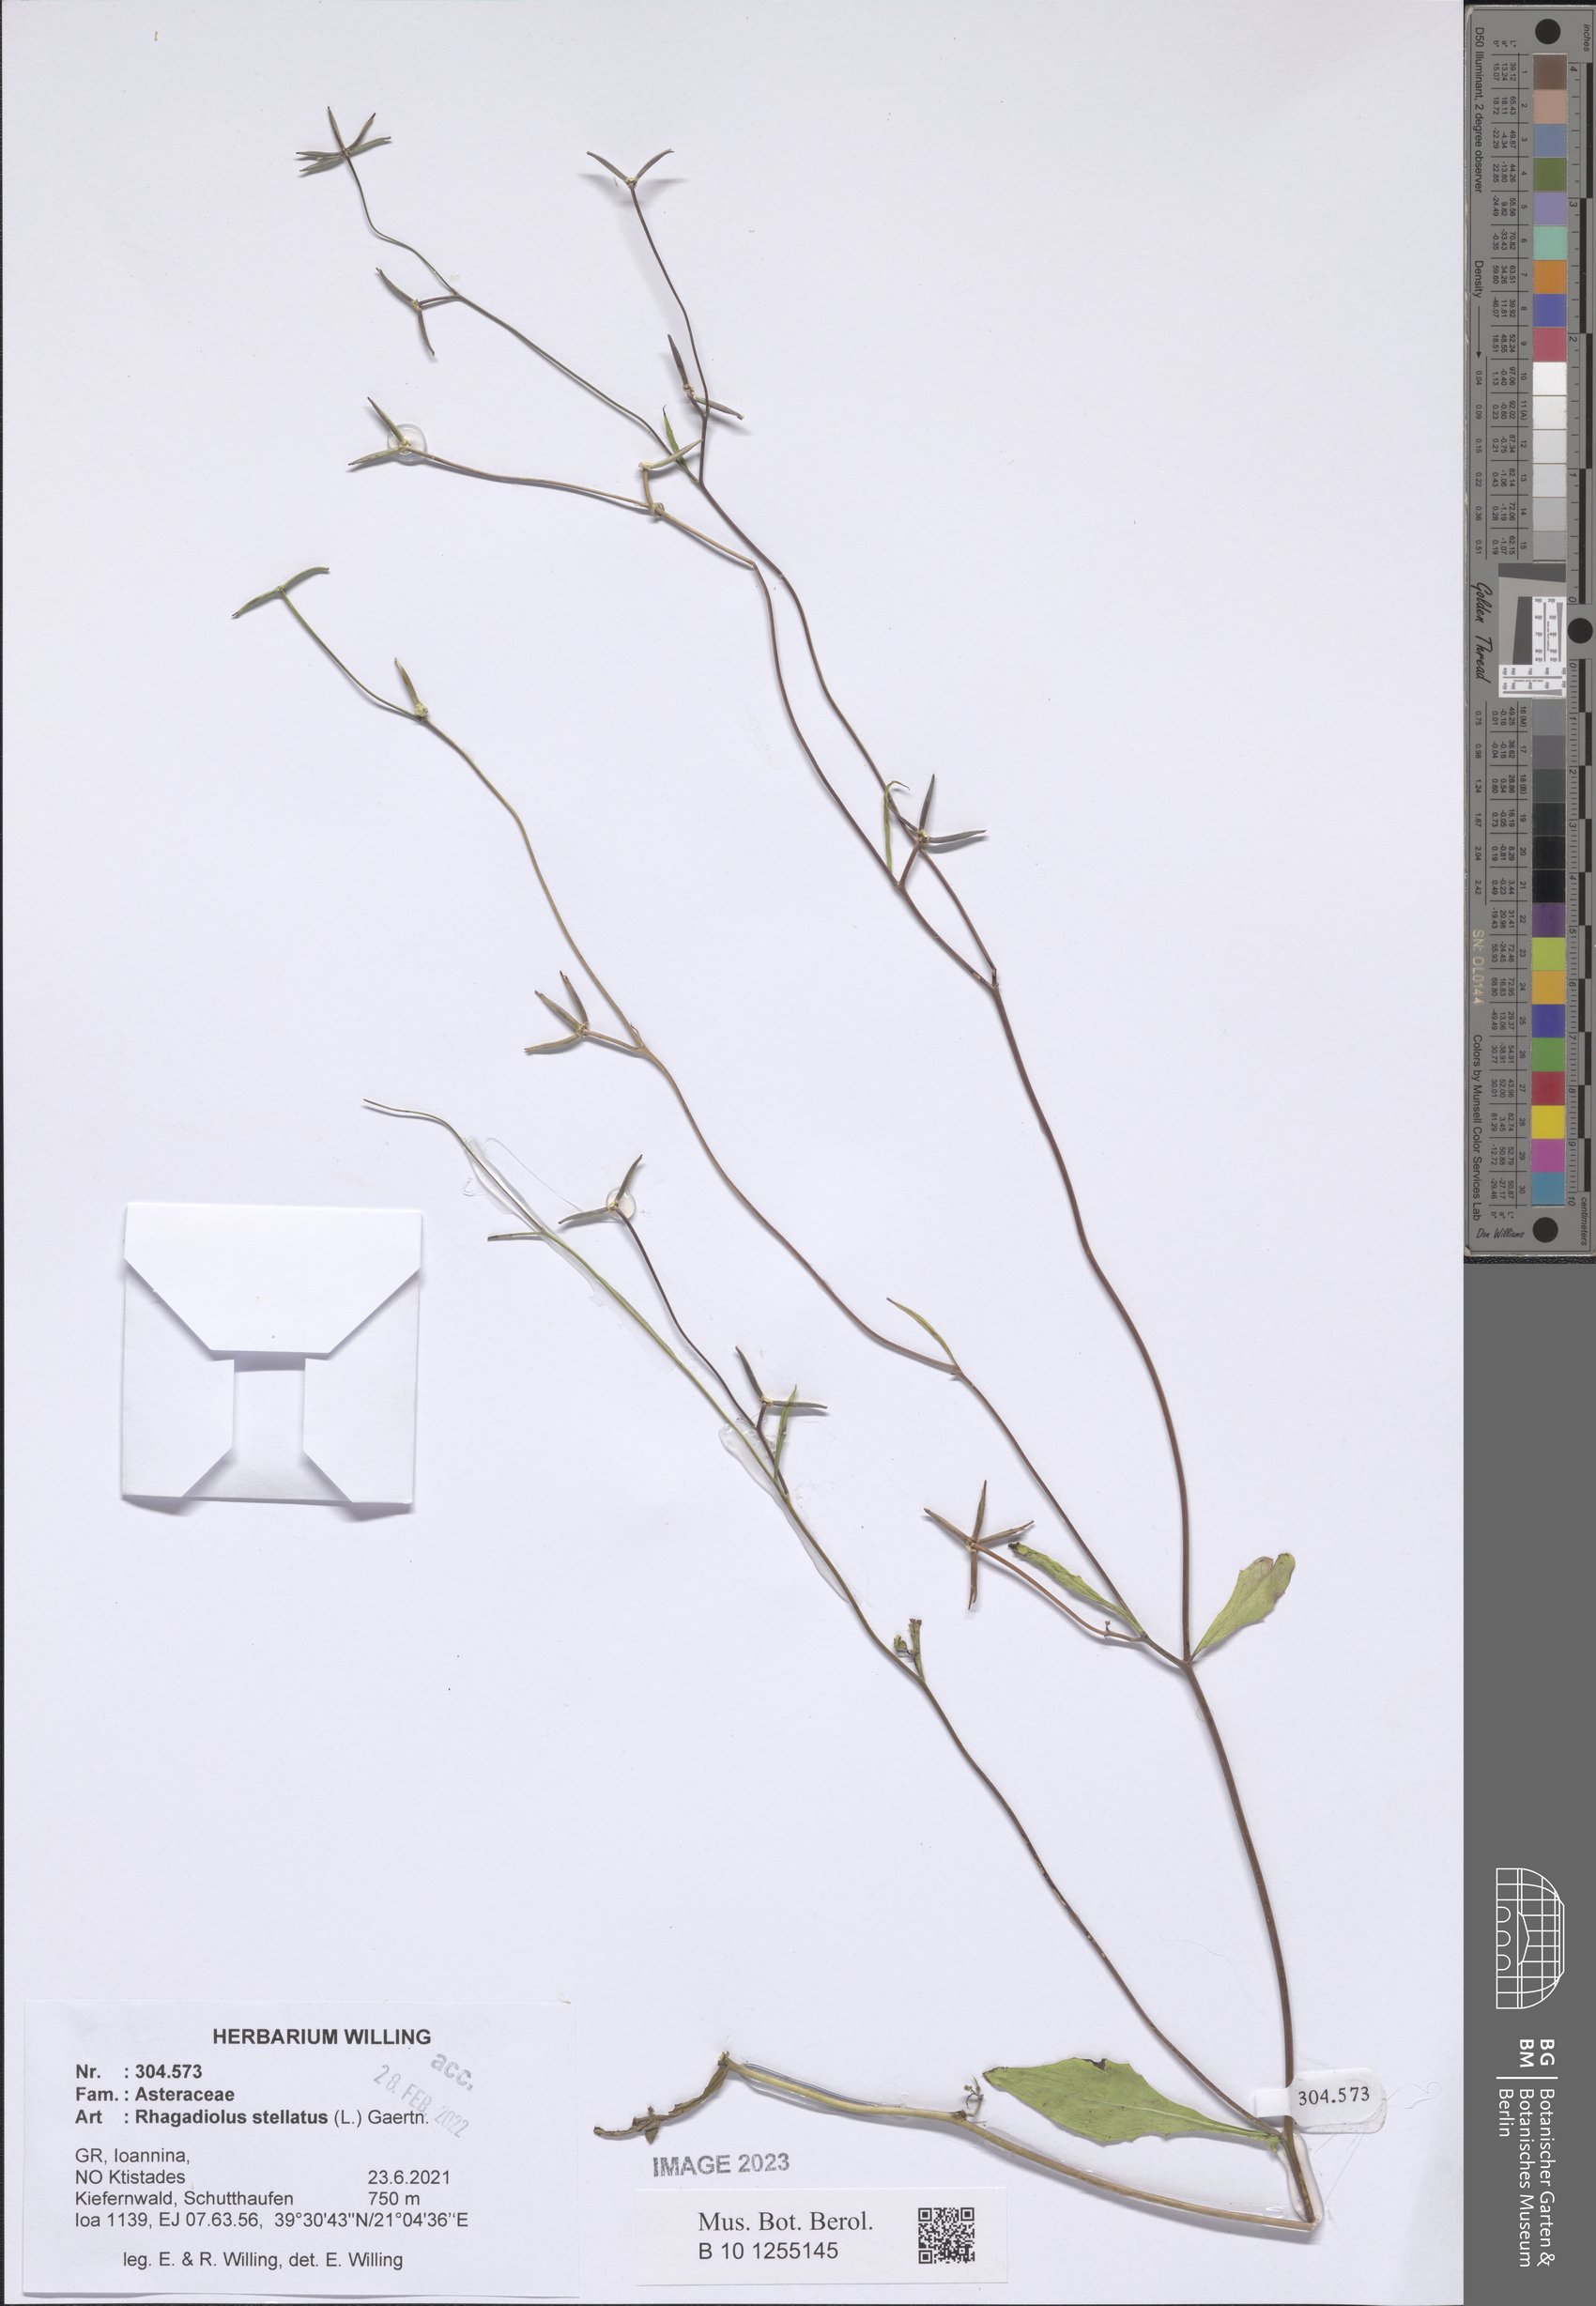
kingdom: Plantae
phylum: Tracheophyta
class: Magnoliopsida
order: Asterales
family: Asteraceae
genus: Rhagadiolus
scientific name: Rhagadiolus stellatus
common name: Star hawkbit
